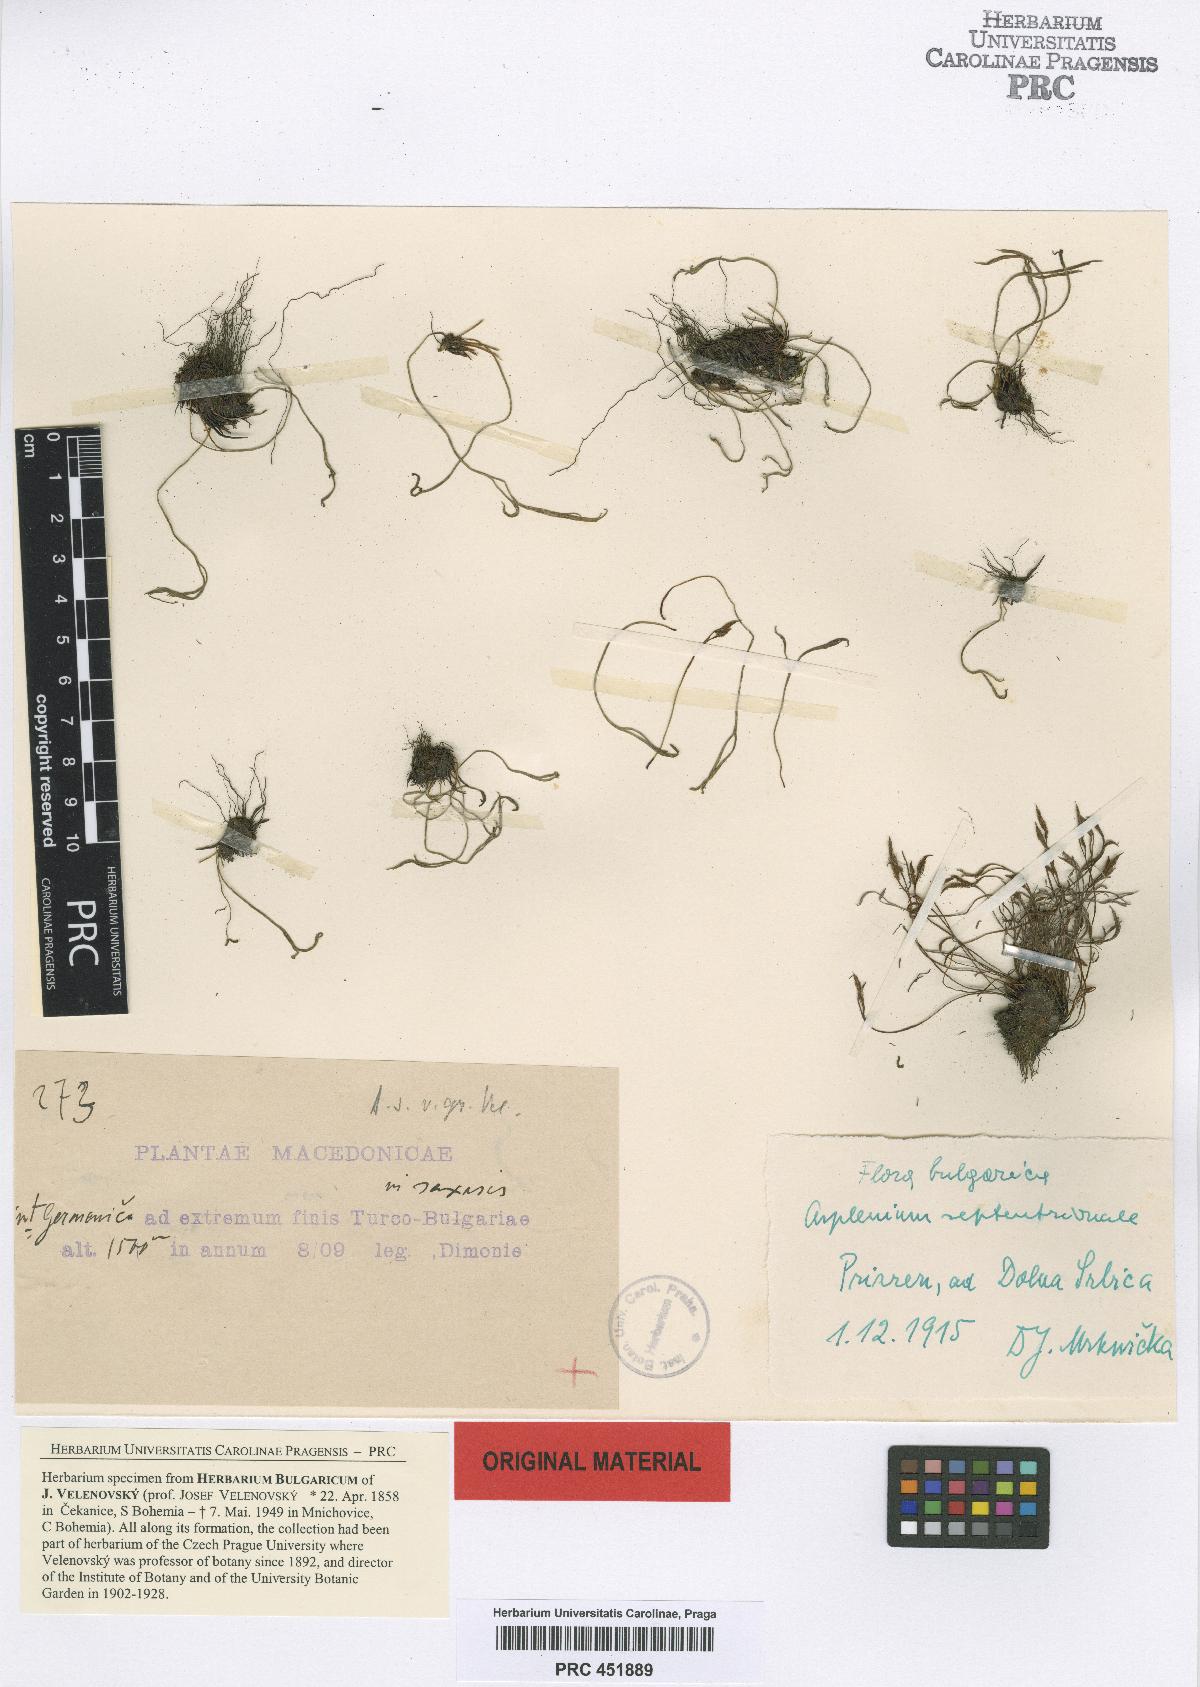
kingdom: Plantae
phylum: Tracheophyta
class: Polypodiopsida
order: Polypodiales
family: Aspleniaceae
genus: Asplenium
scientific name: Asplenium septentrionale
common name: Forked spleenwort
